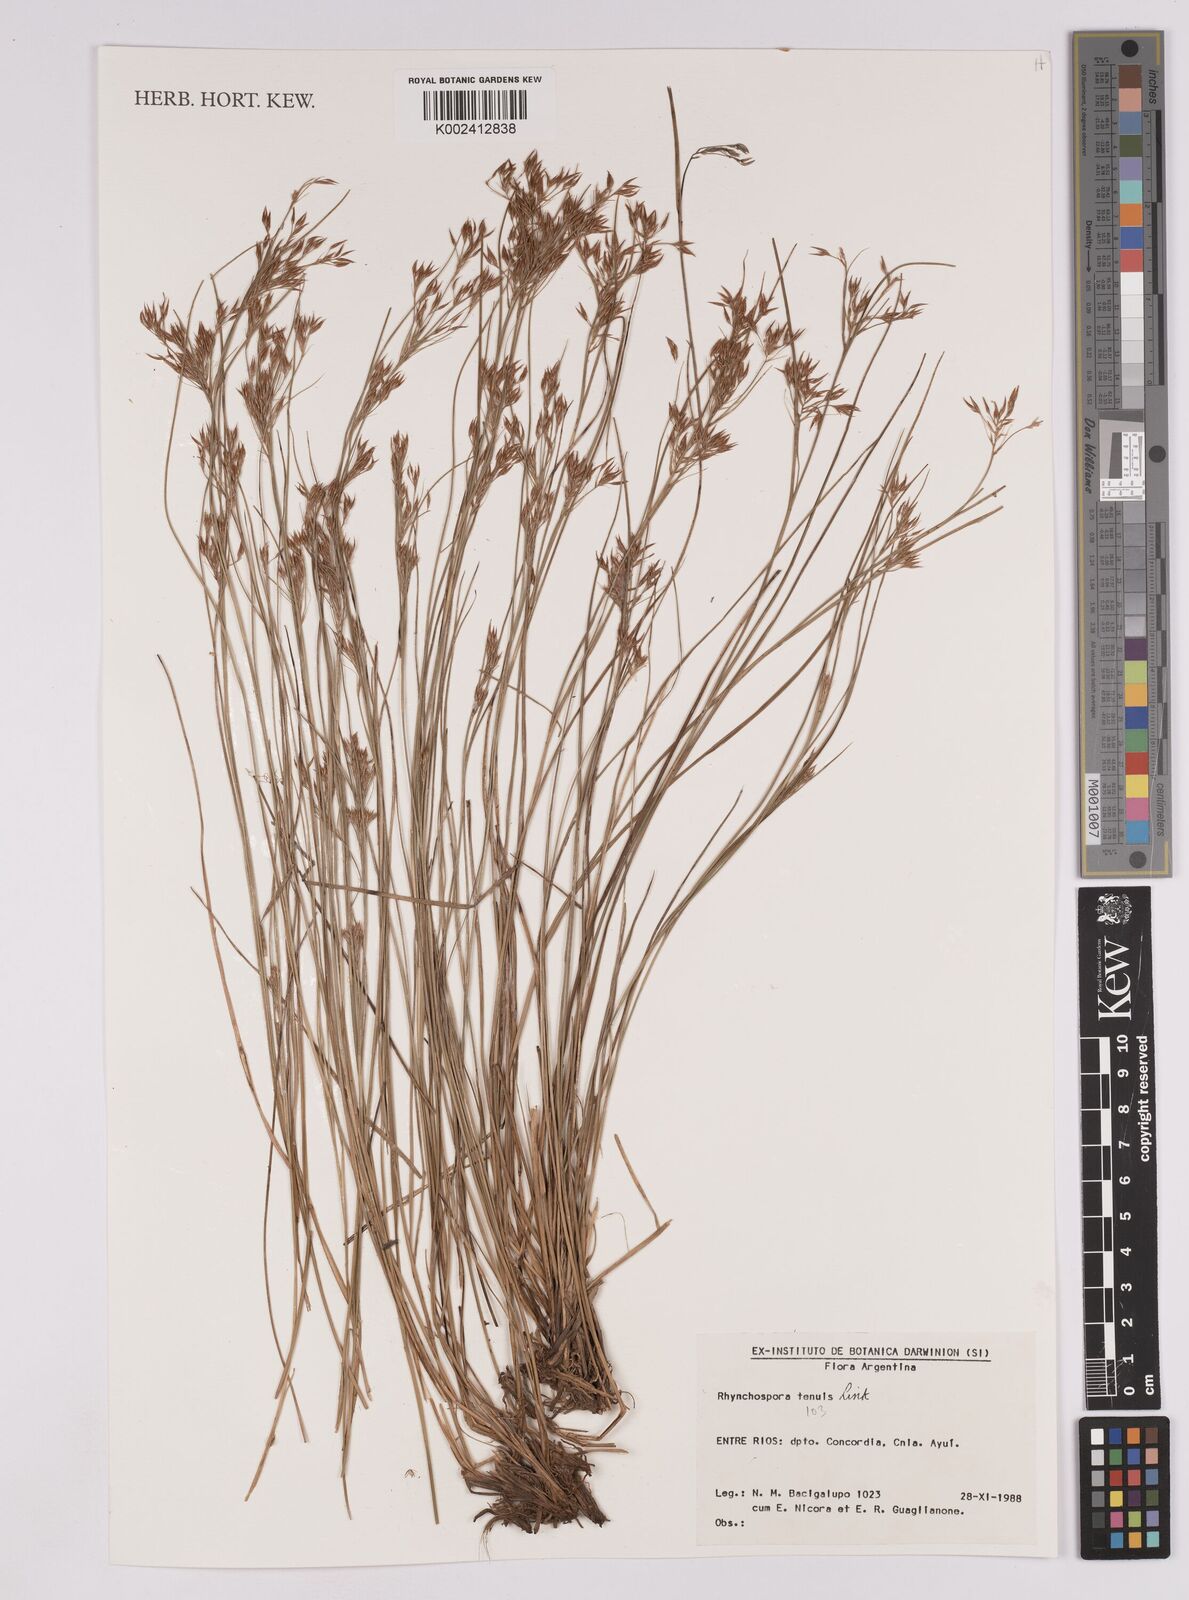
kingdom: Plantae
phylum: Tracheophyta
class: Liliopsida
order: Poales
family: Cyperaceae
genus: Rhynchospora
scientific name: Rhynchospora tenuis
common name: Quill beaksedge
